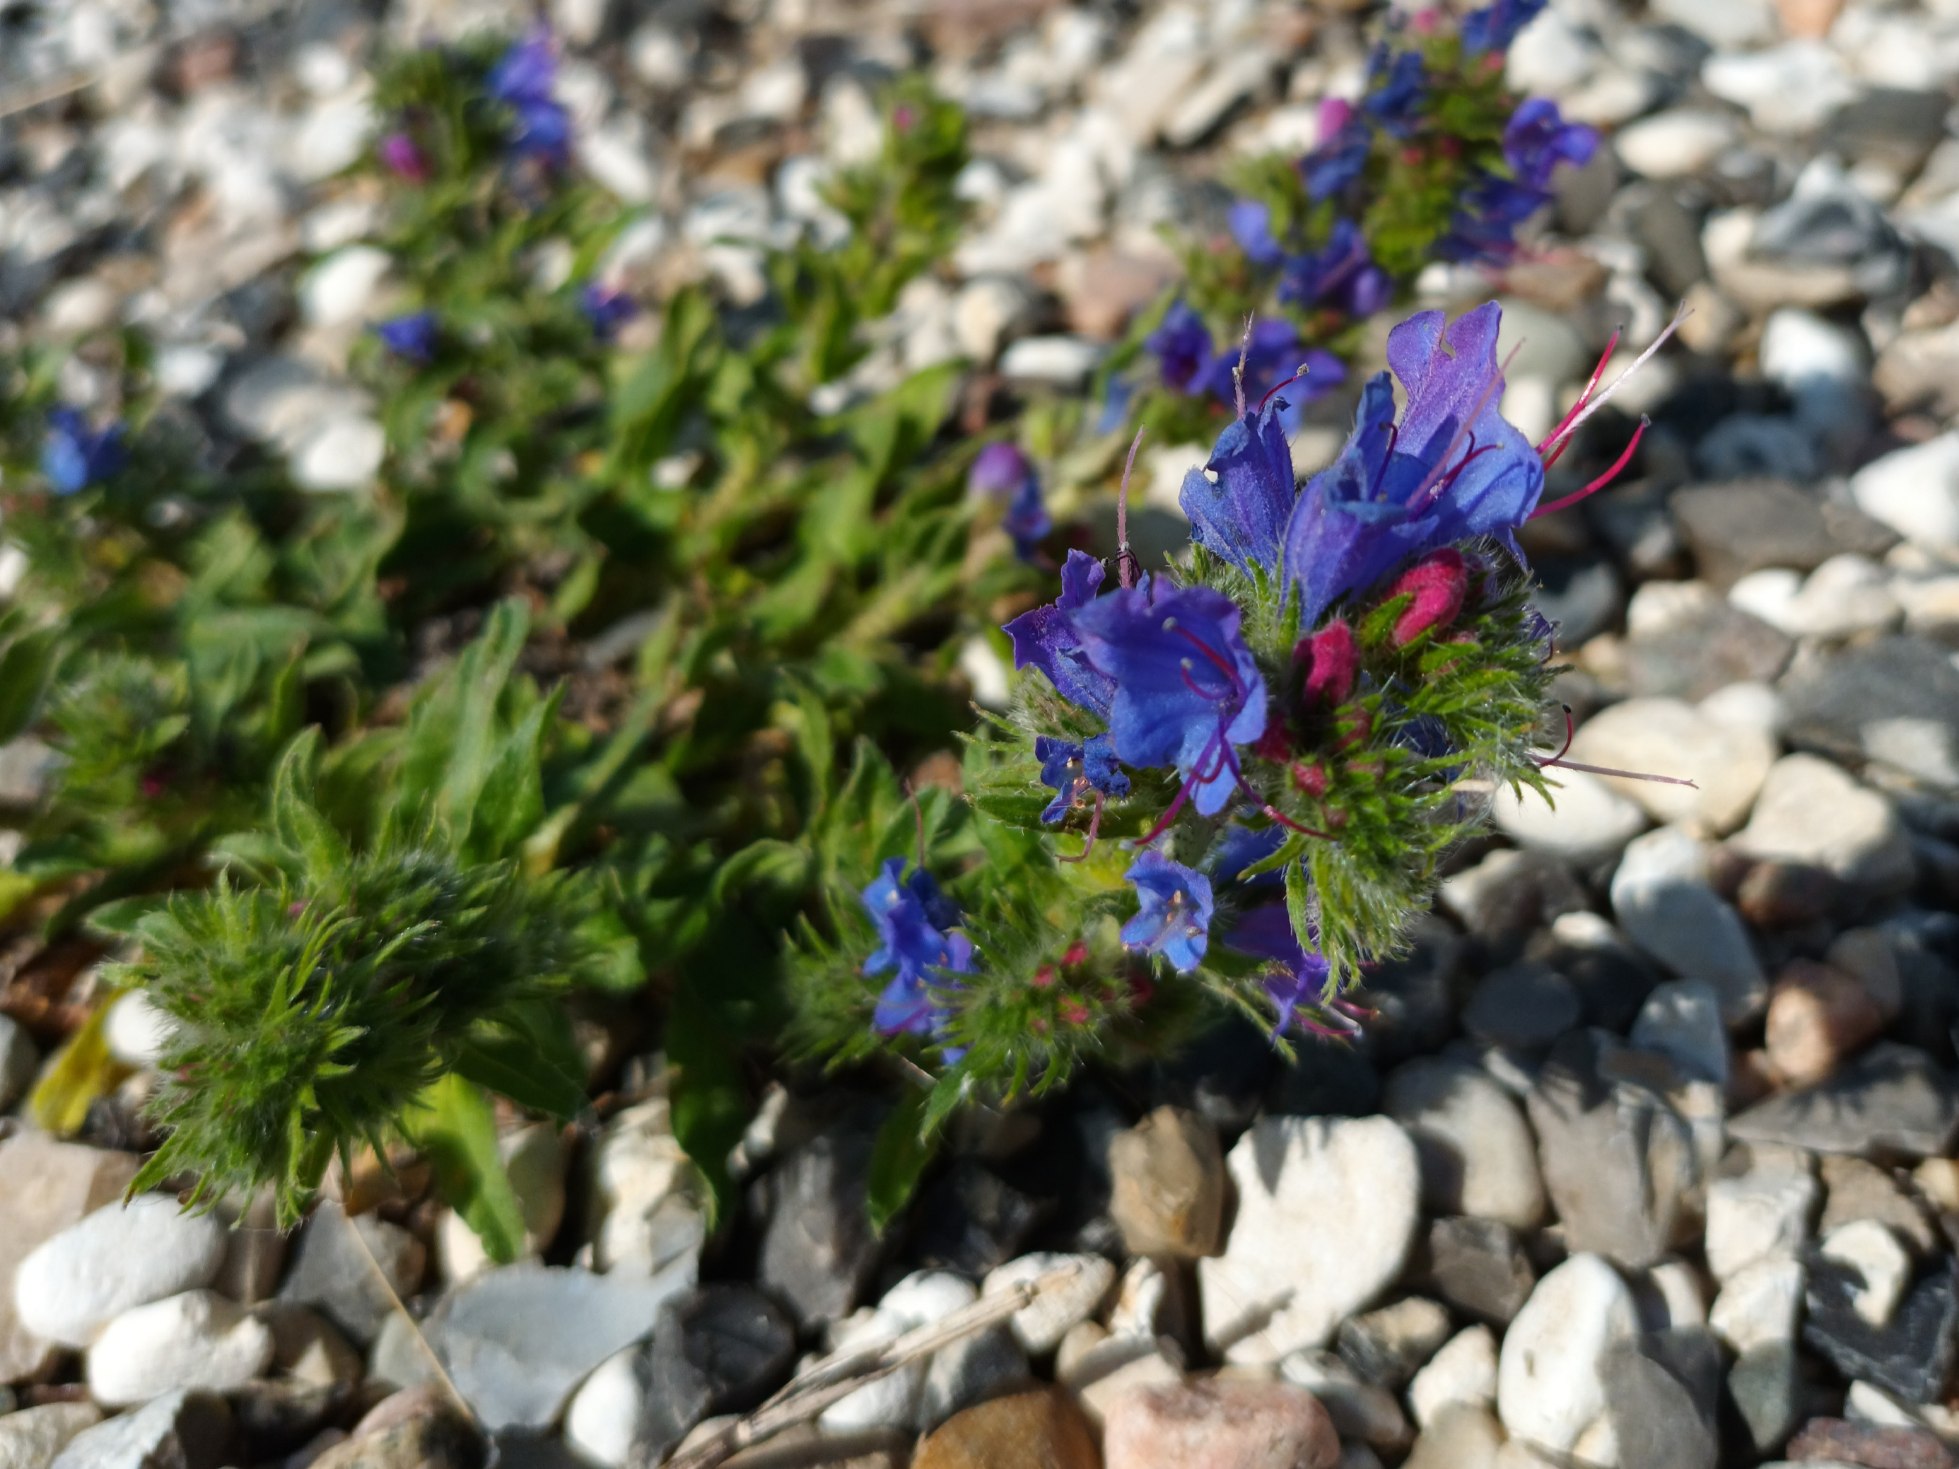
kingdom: Plantae
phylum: Tracheophyta
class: Magnoliopsida
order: Boraginales
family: Boraginaceae
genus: Echium
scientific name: Echium vulgare
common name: Slangehoved
